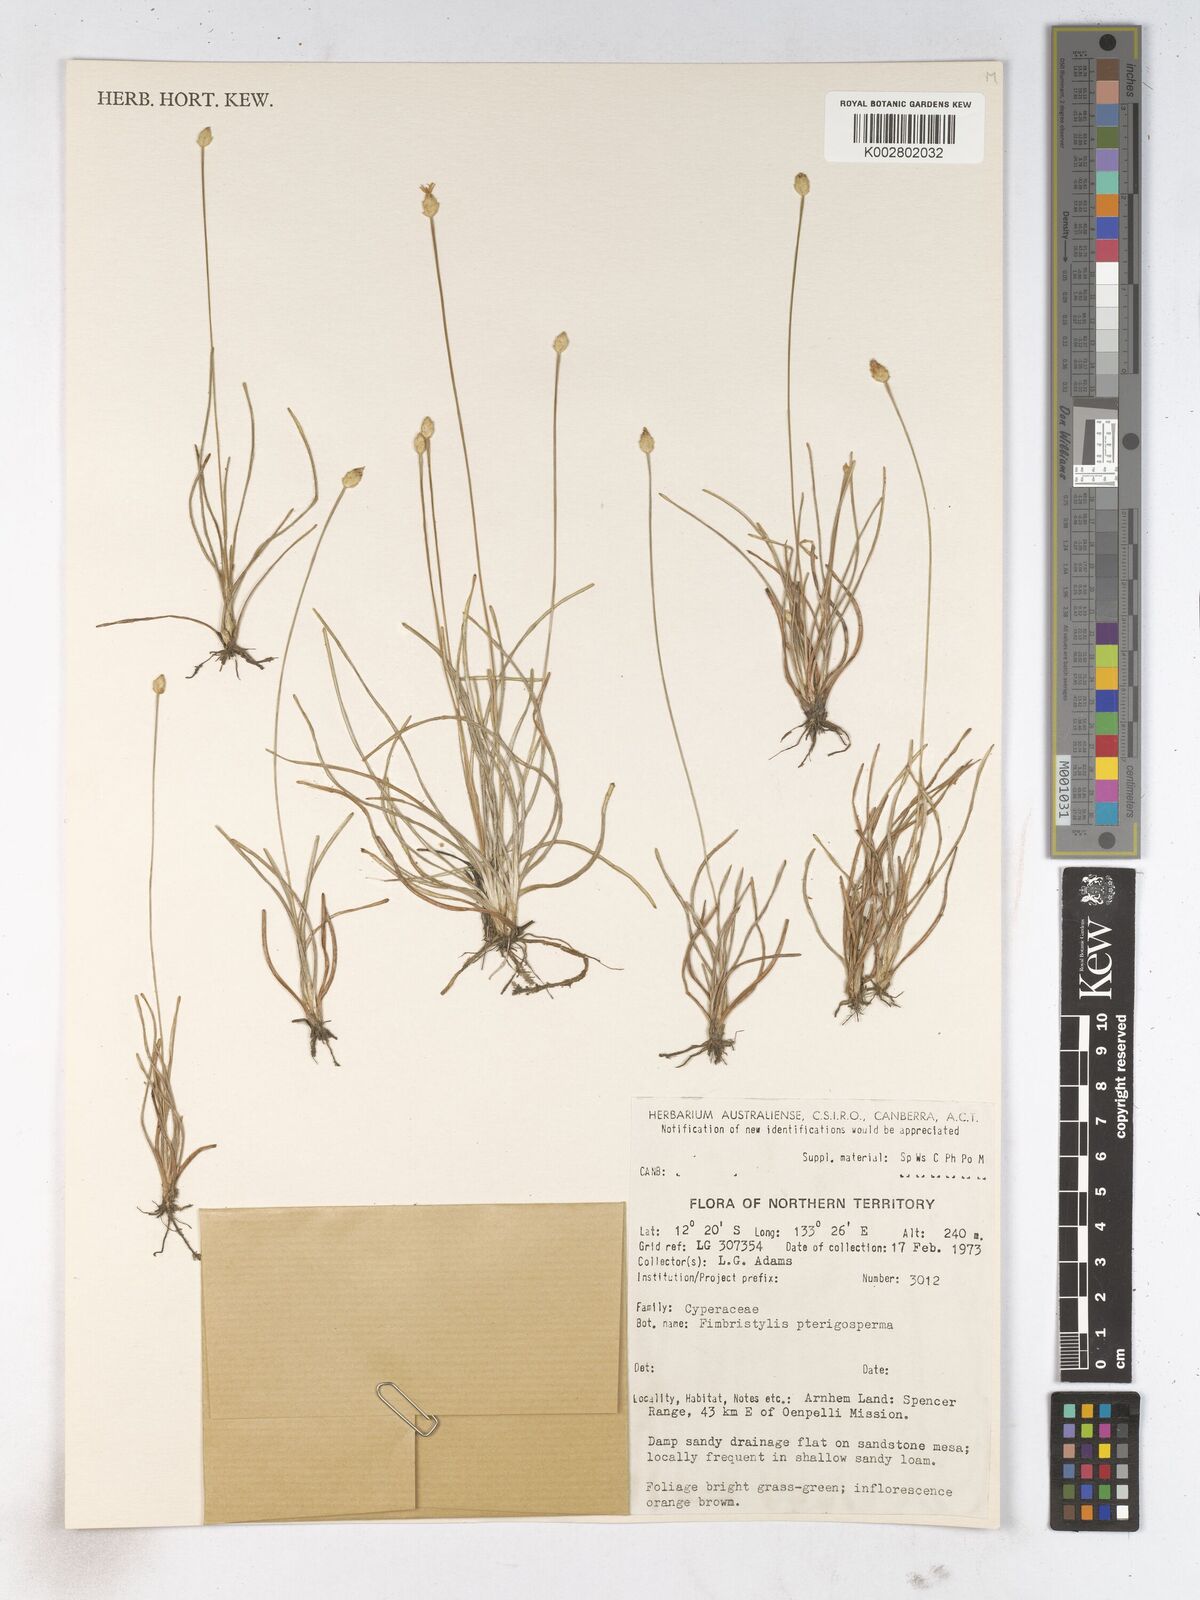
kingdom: Plantae
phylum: Tracheophyta
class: Liliopsida
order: Poales
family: Cyperaceae
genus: Fimbristylis
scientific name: Fimbristylis pterigosperma
